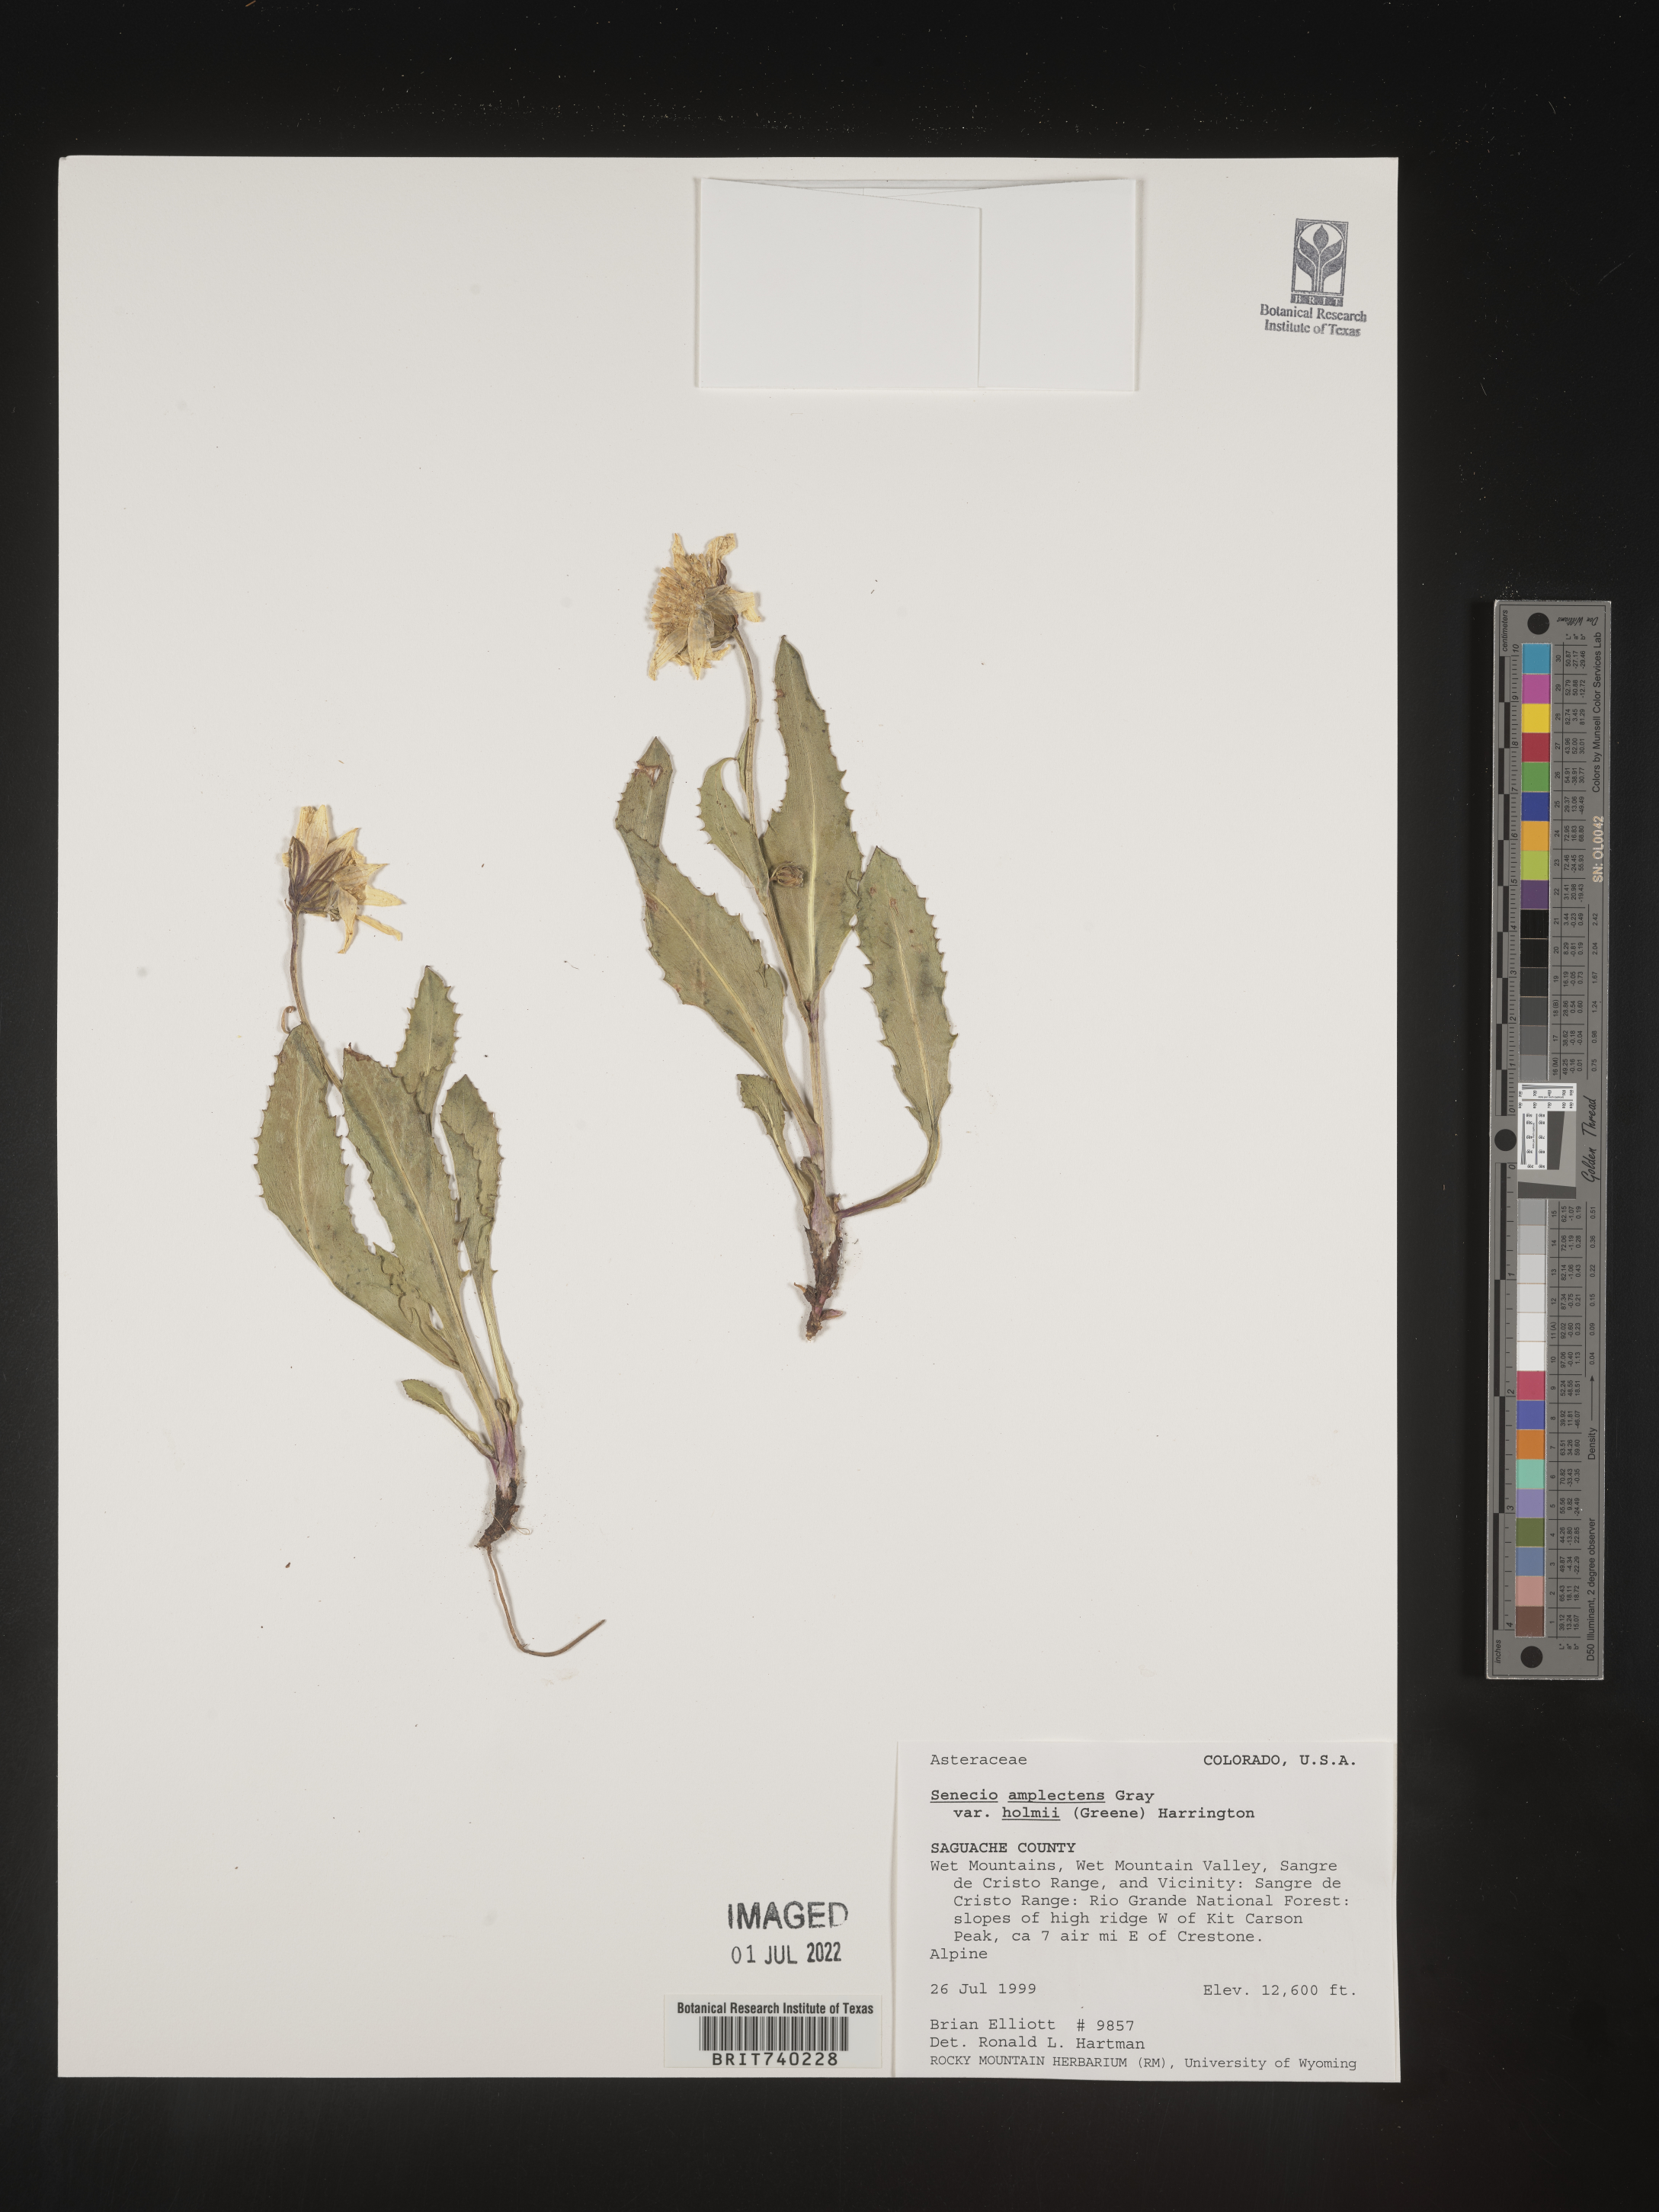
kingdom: Plantae
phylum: Tracheophyta
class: Magnoliopsida
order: Asterales
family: Asteraceae
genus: Senecio
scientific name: Senecio amplectens
